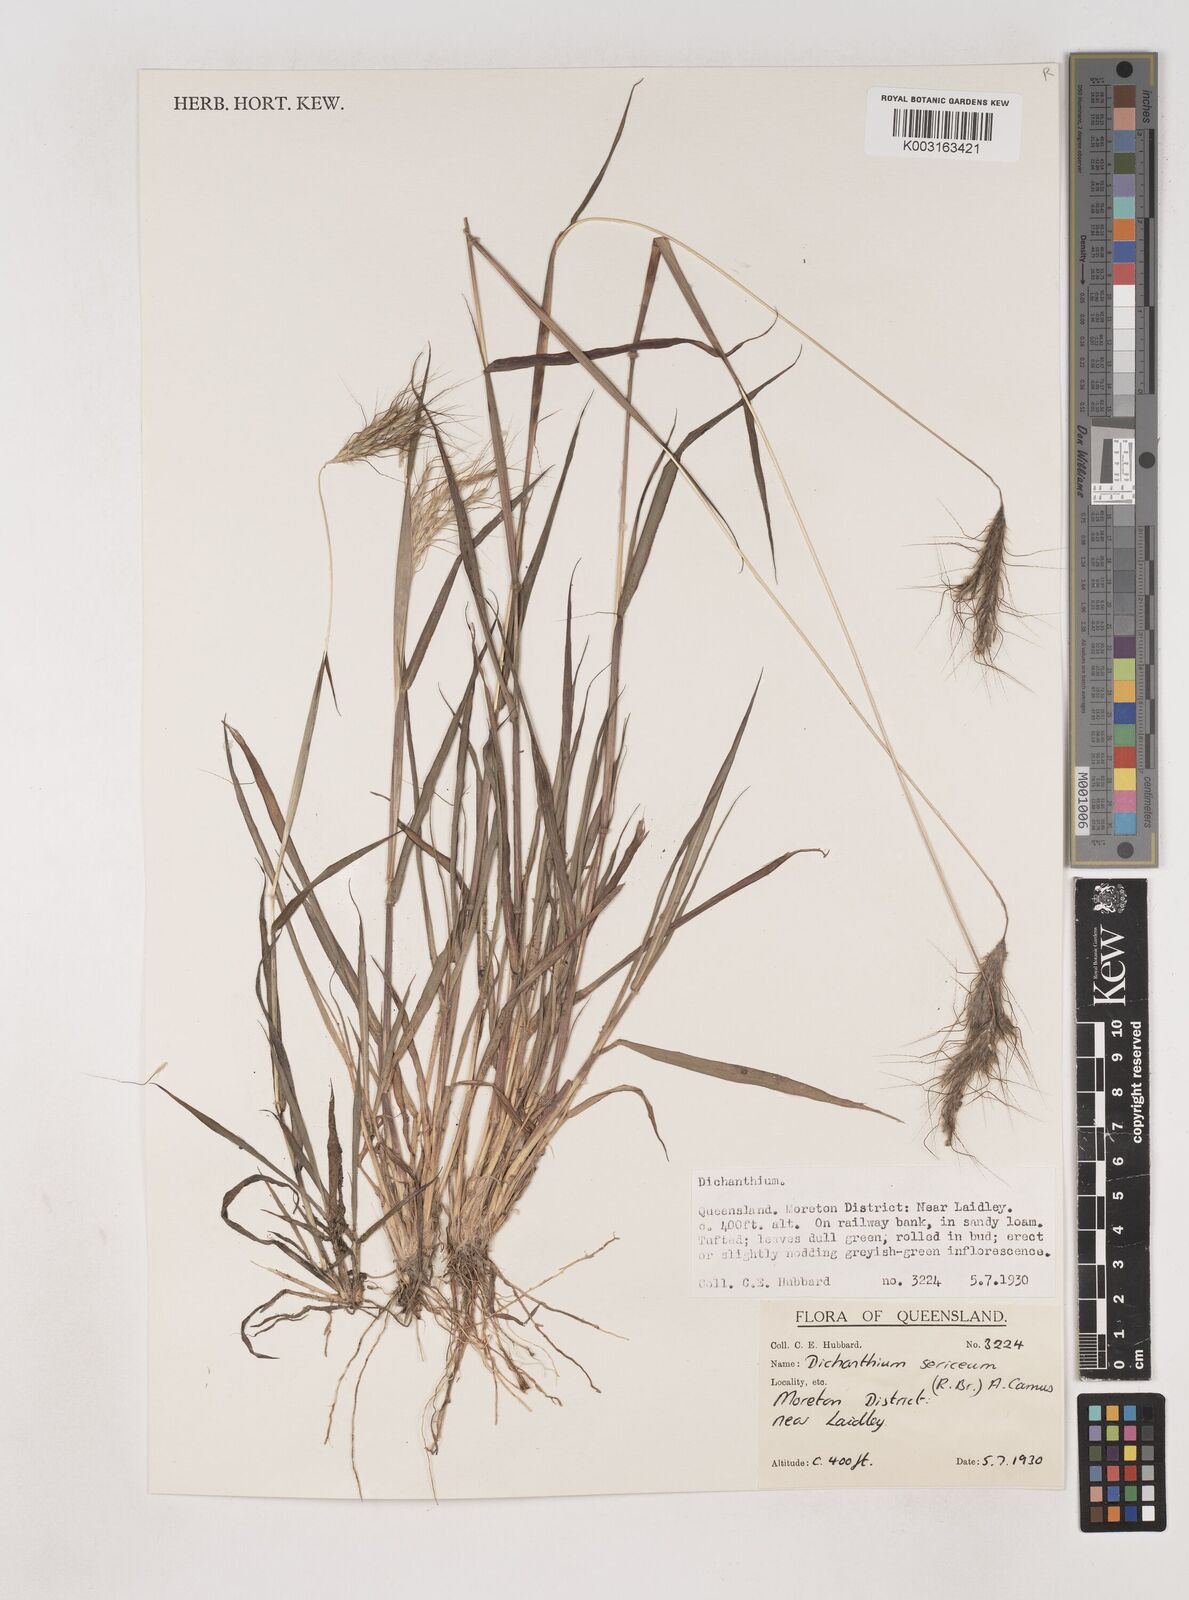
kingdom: Plantae
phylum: Tracheophyta
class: Liliopsida
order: Poales
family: Poaceae
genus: Dichanthium
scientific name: Dichanthium sericeum
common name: Silky bluestem
